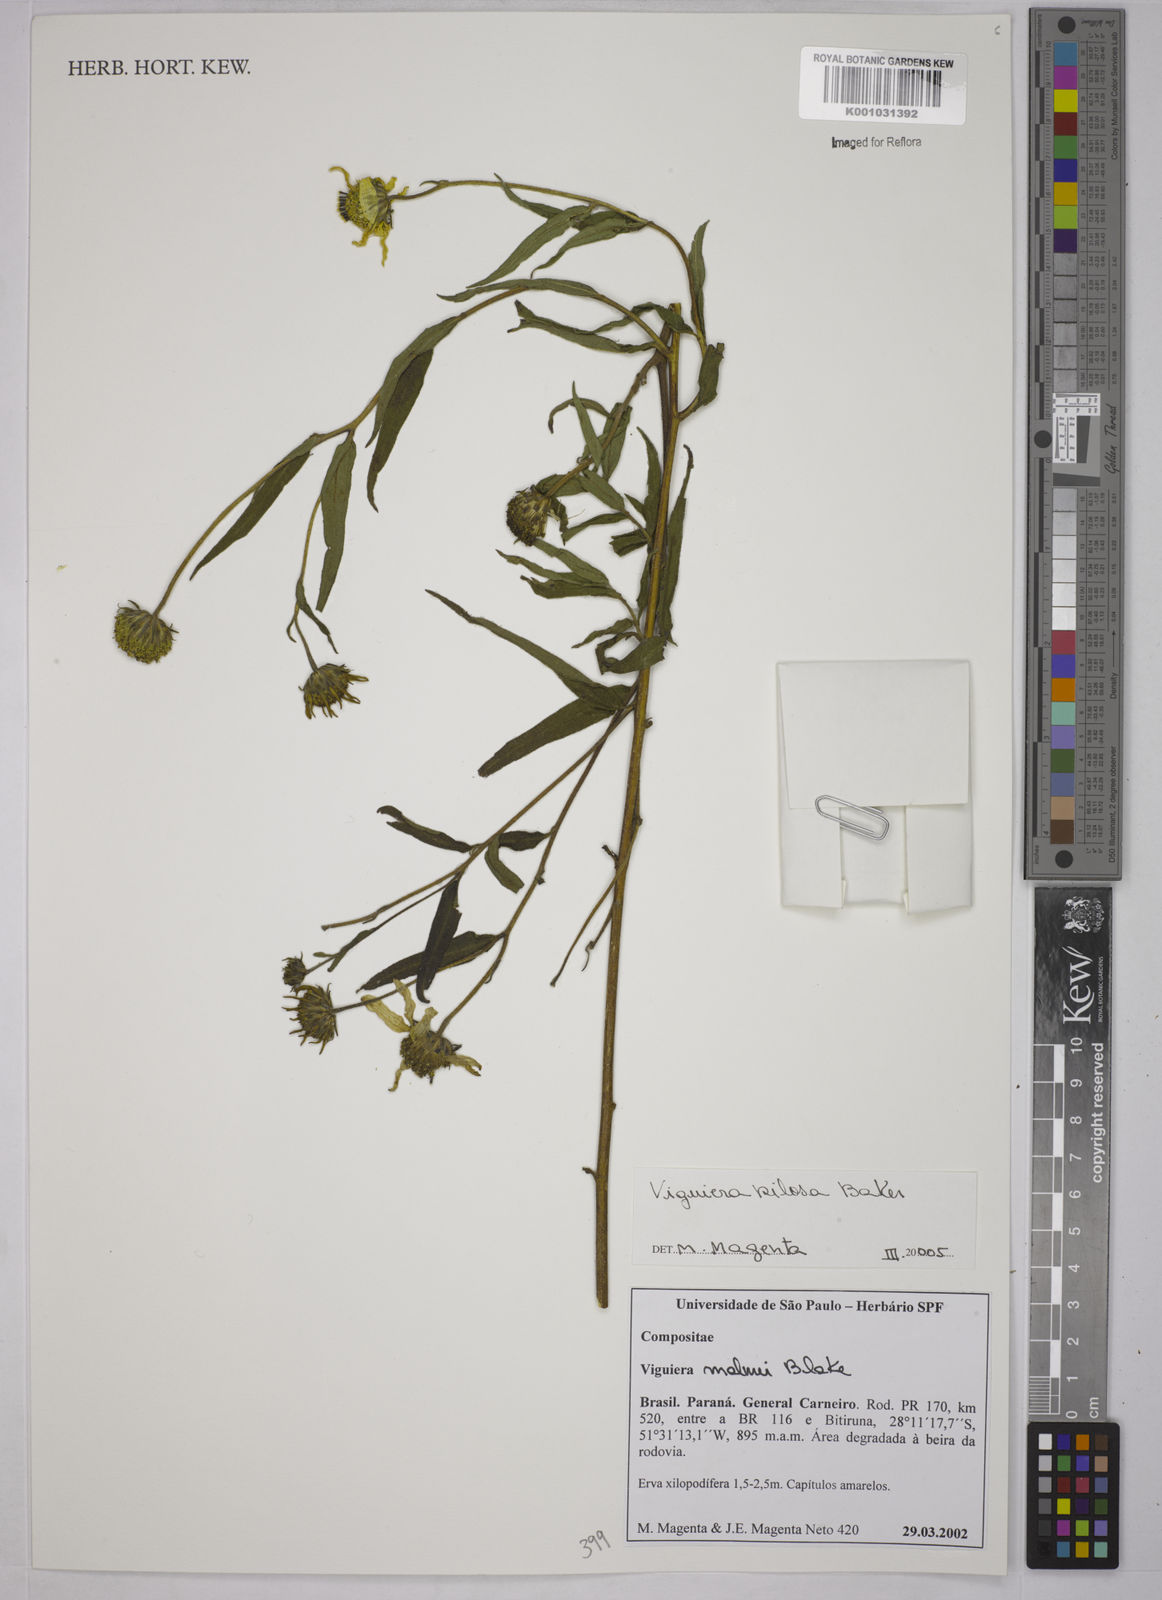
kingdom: Plantae
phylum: Tracheophyta
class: Magnoliopsida
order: Asterales
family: Asteraceae
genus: Aldama
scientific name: Aldama pilosa
